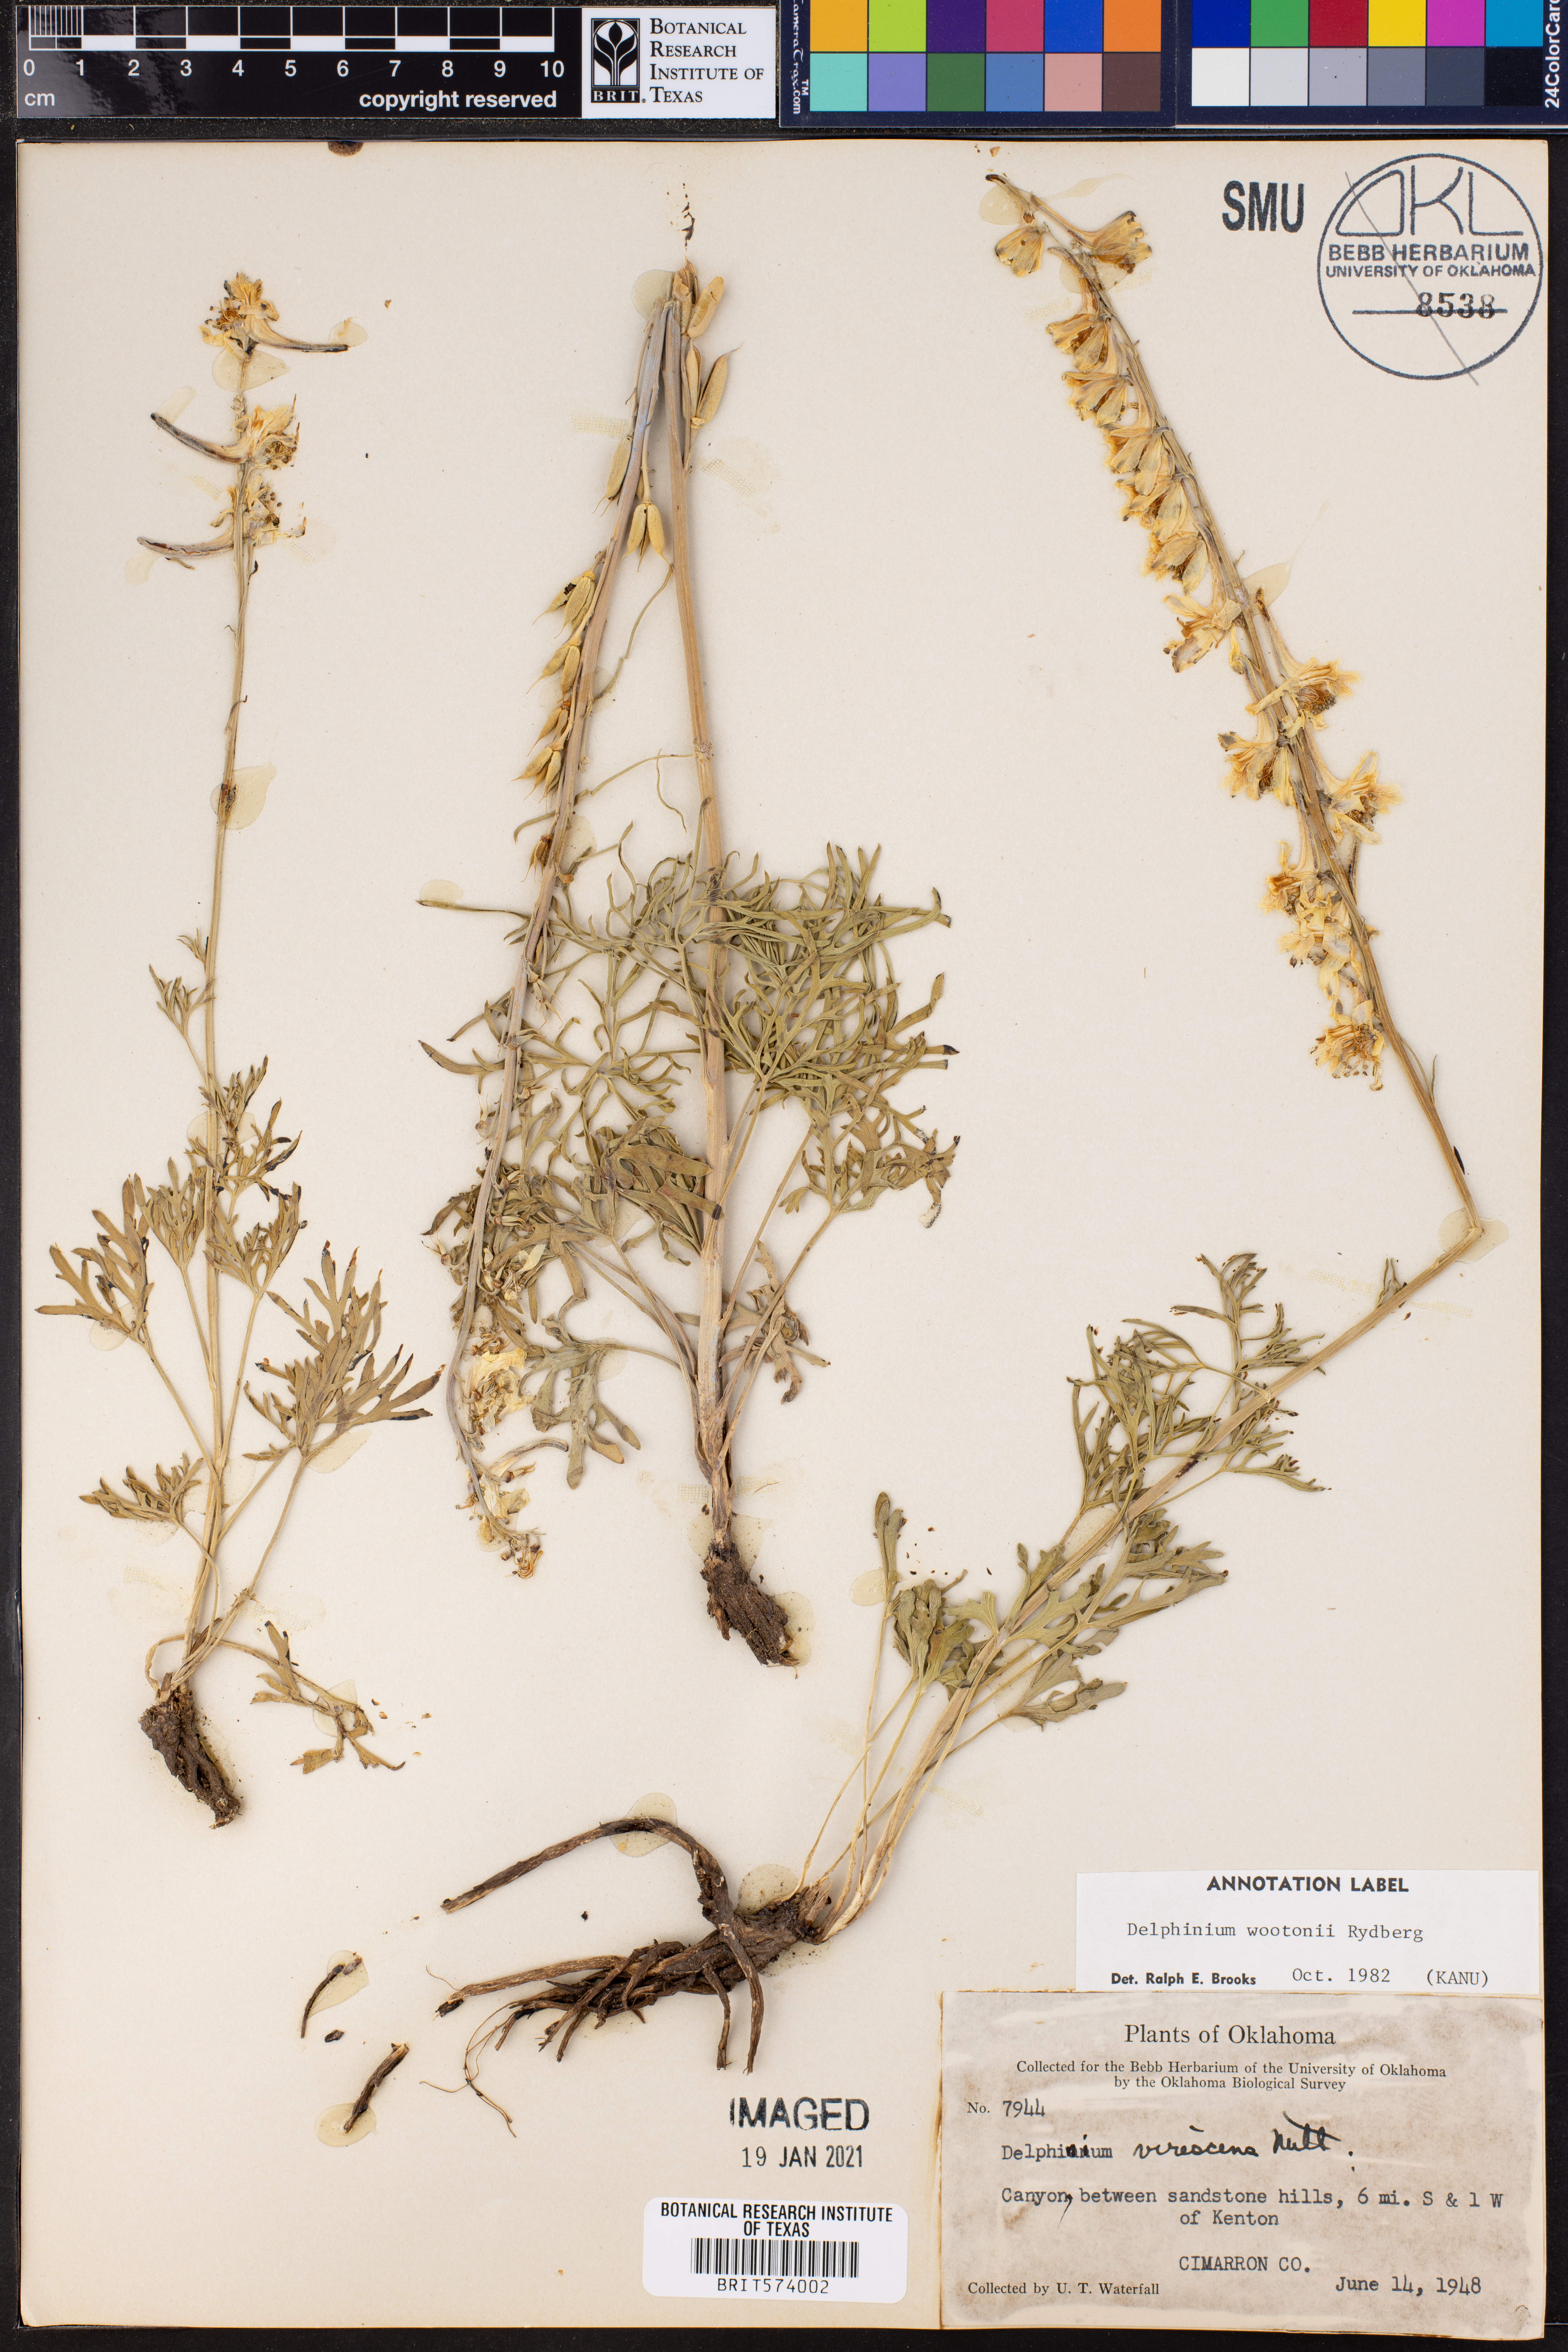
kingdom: Plantae
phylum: Tracheophyta
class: Magnoliopsida
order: Ranunculales
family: Ranunculaceae
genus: Delphinium
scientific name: Delphinium wootonii
